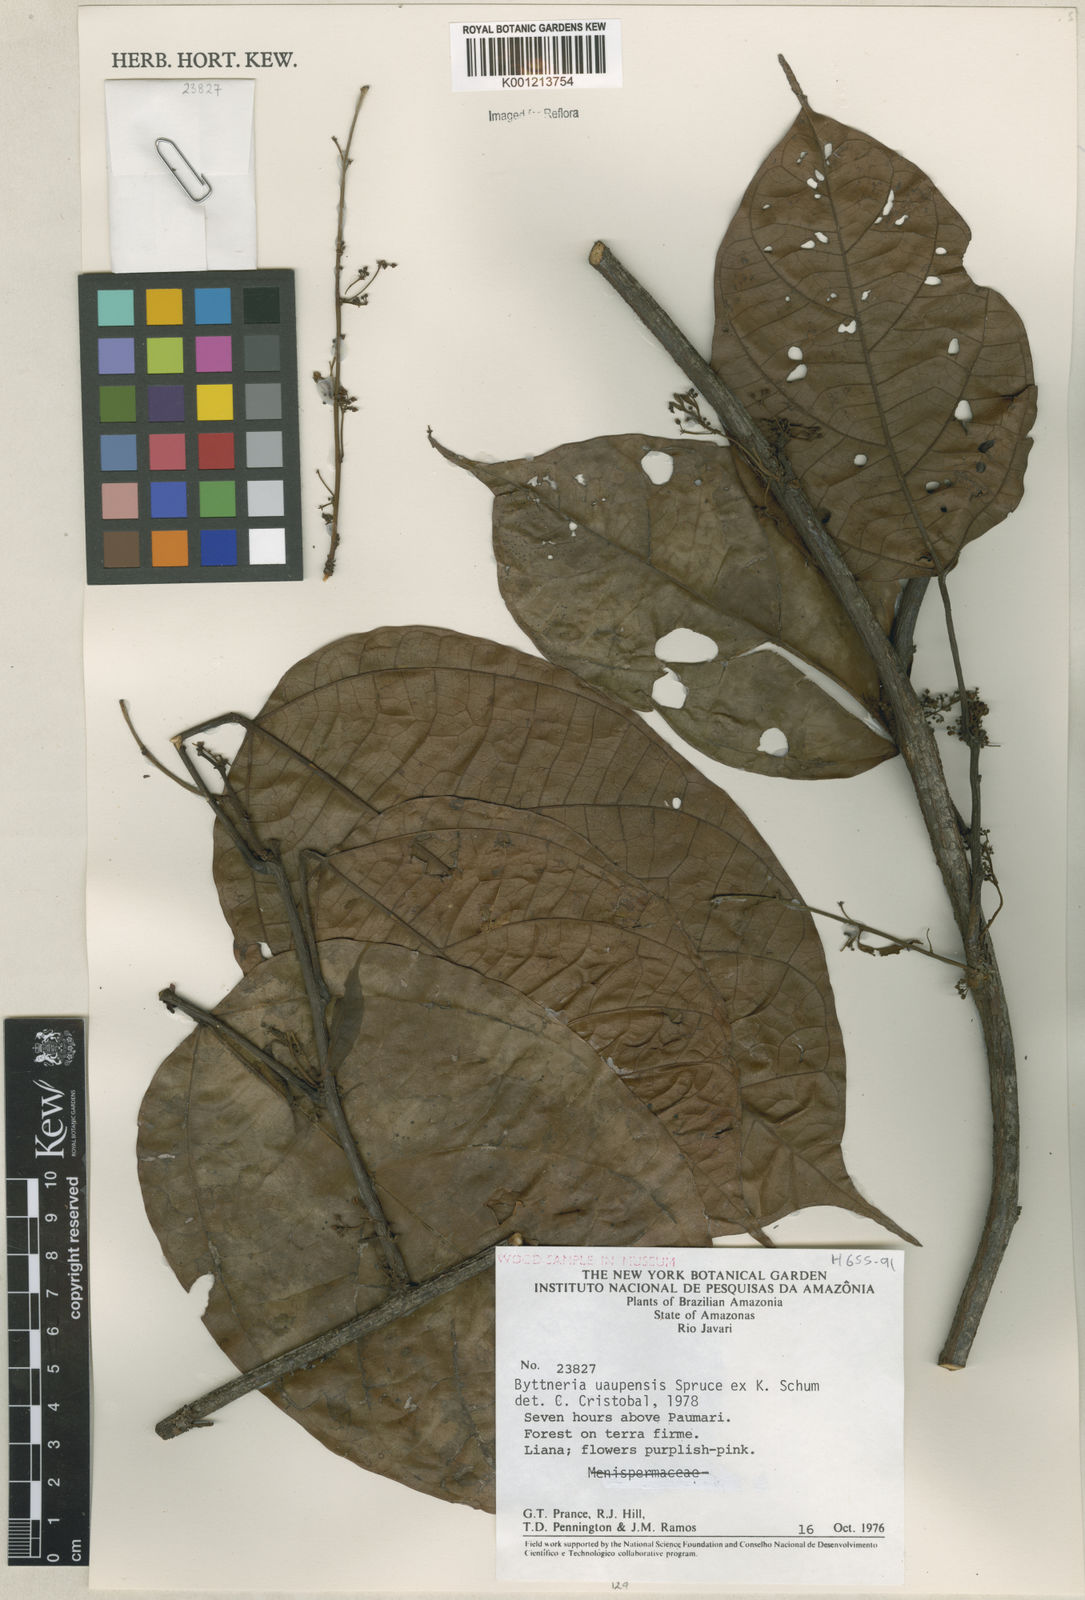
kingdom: Plantae
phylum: Tracheophyta
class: Magnoliopsida
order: Malvales
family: Malvaceae
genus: Byttneria
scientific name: Byttneria uaupensis
